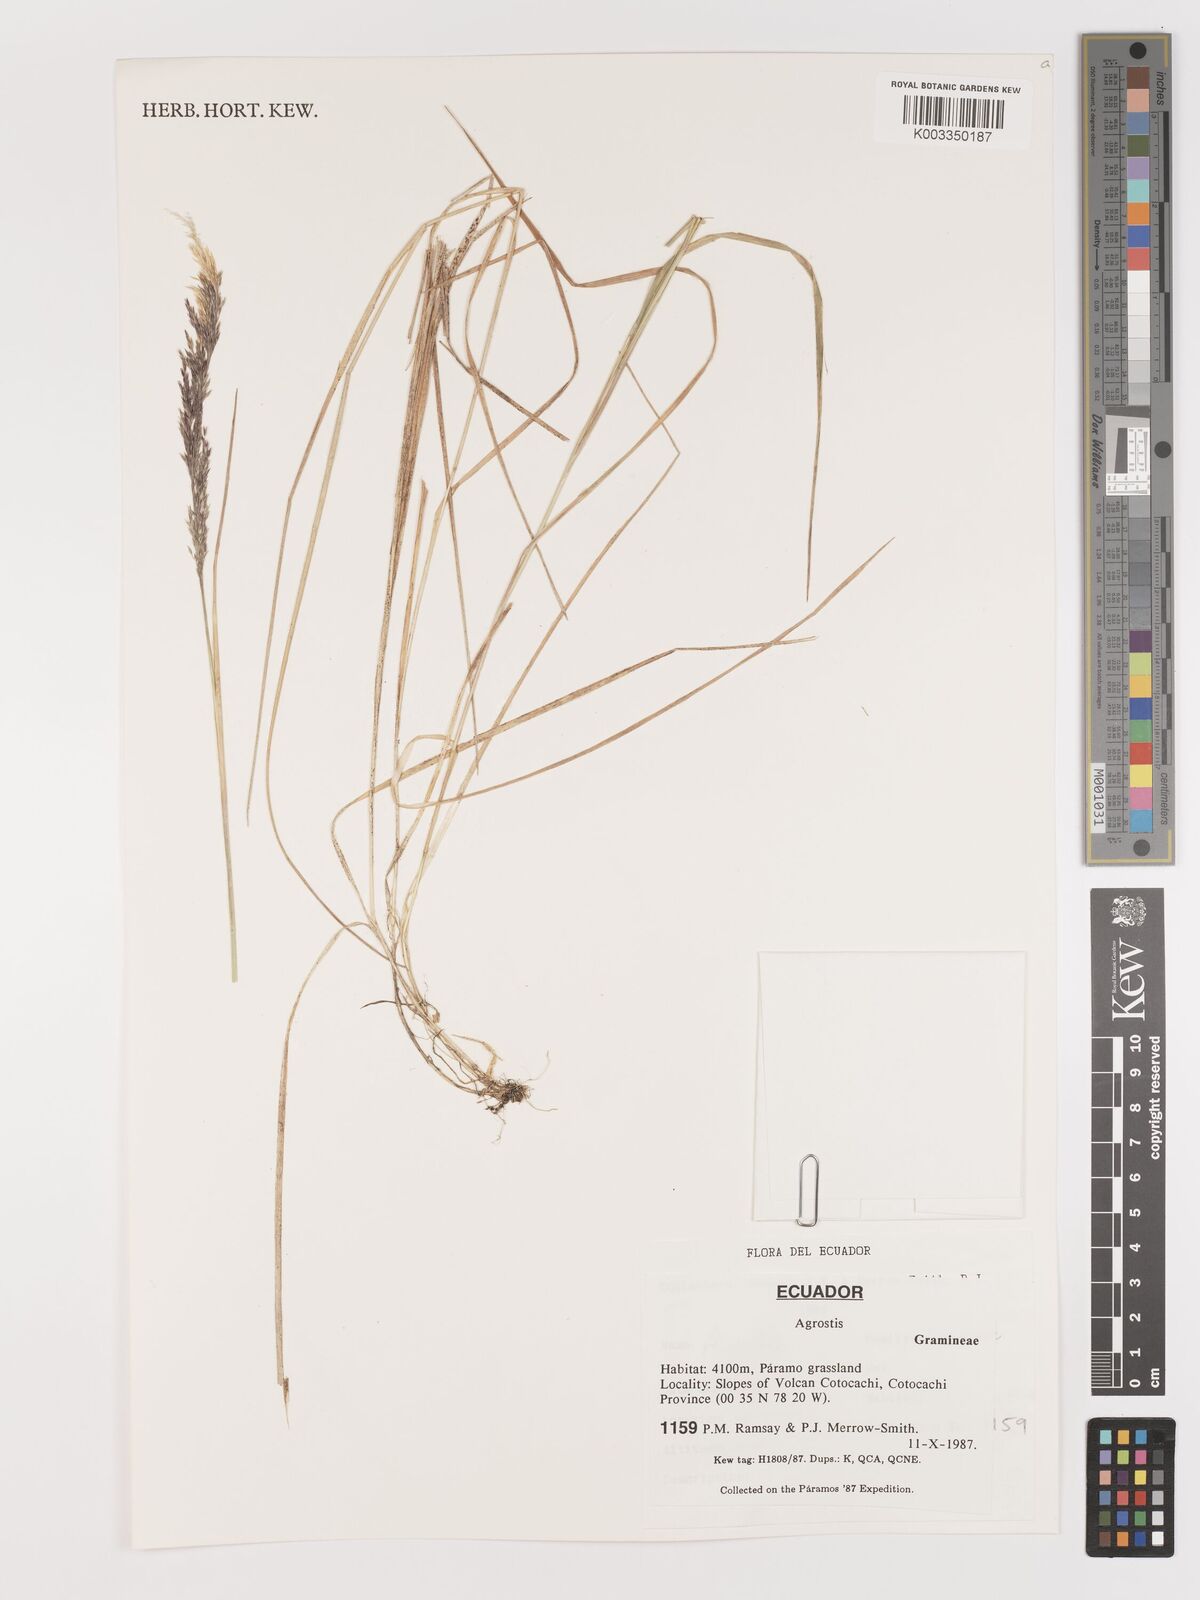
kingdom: Plantae
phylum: Tracheophyta
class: Liliopsida
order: Poales
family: Poaceae
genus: Agrostis
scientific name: Agrostis
